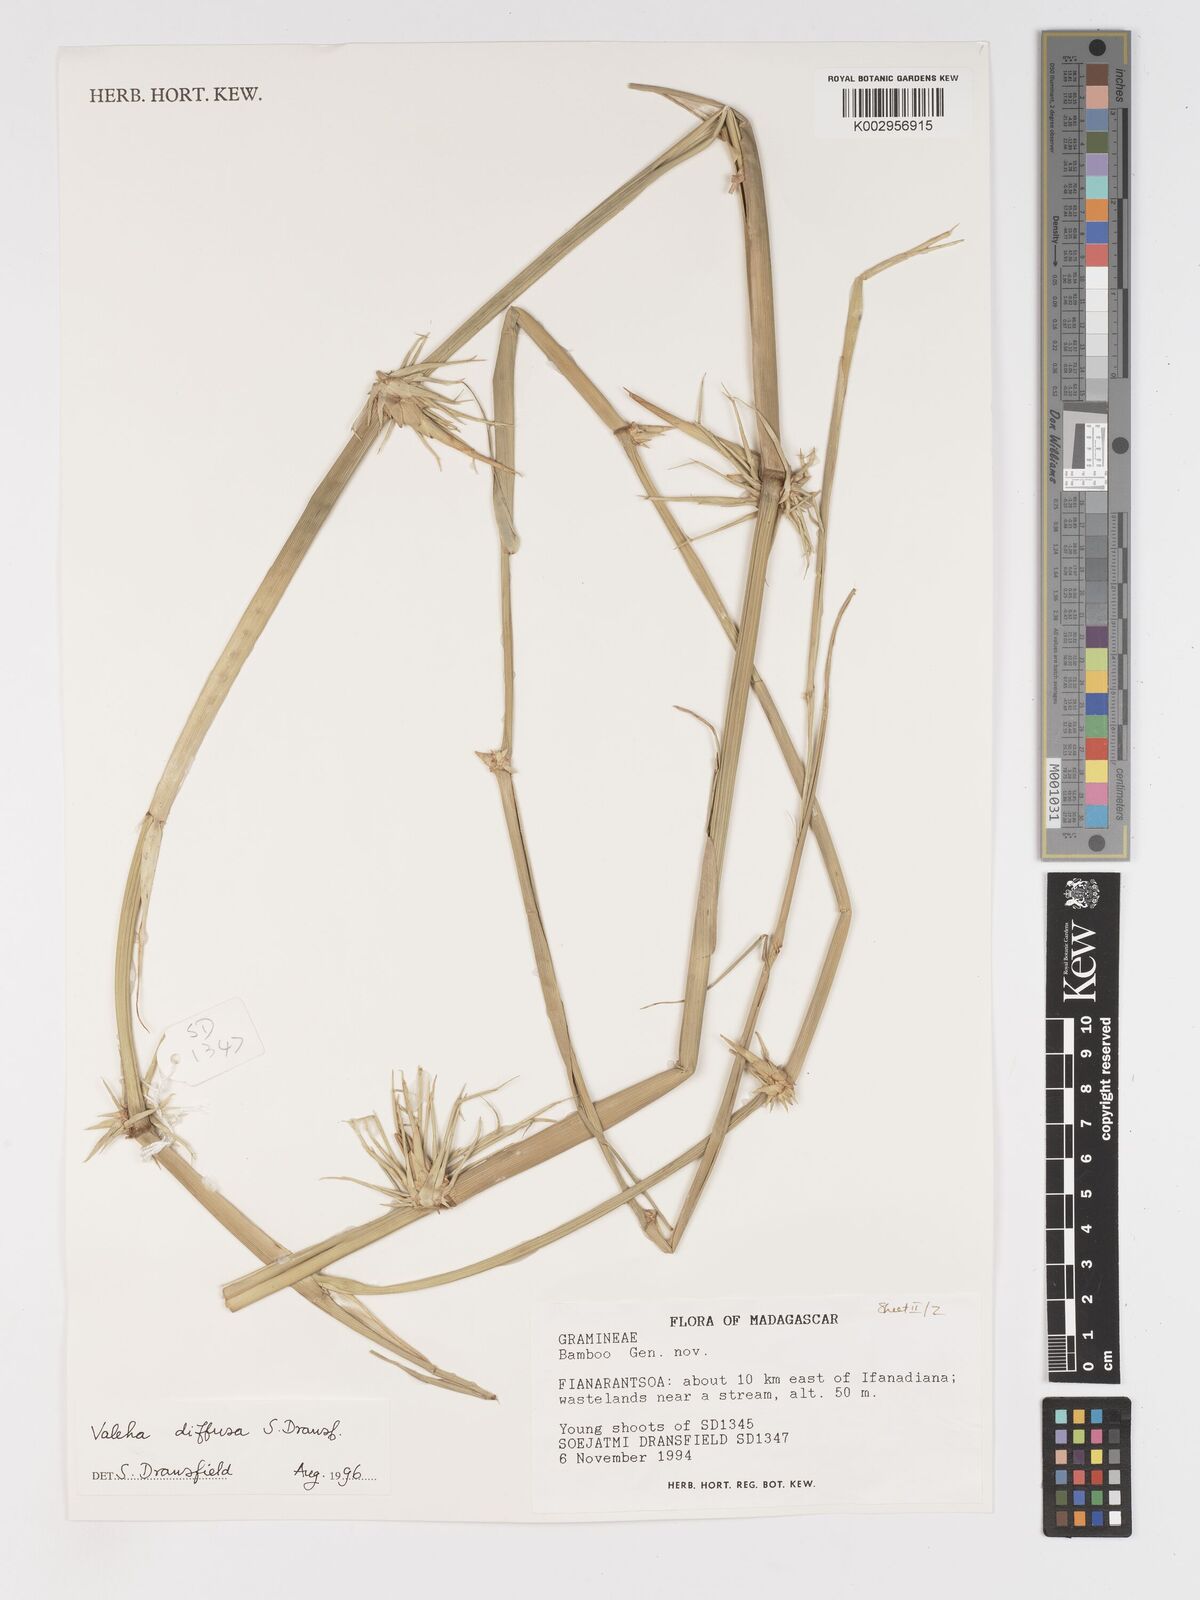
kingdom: Plantae
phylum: Tracheophyta
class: Liliopsida
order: Poales
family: Poaceae
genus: Valiha
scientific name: Valiha diffusa
